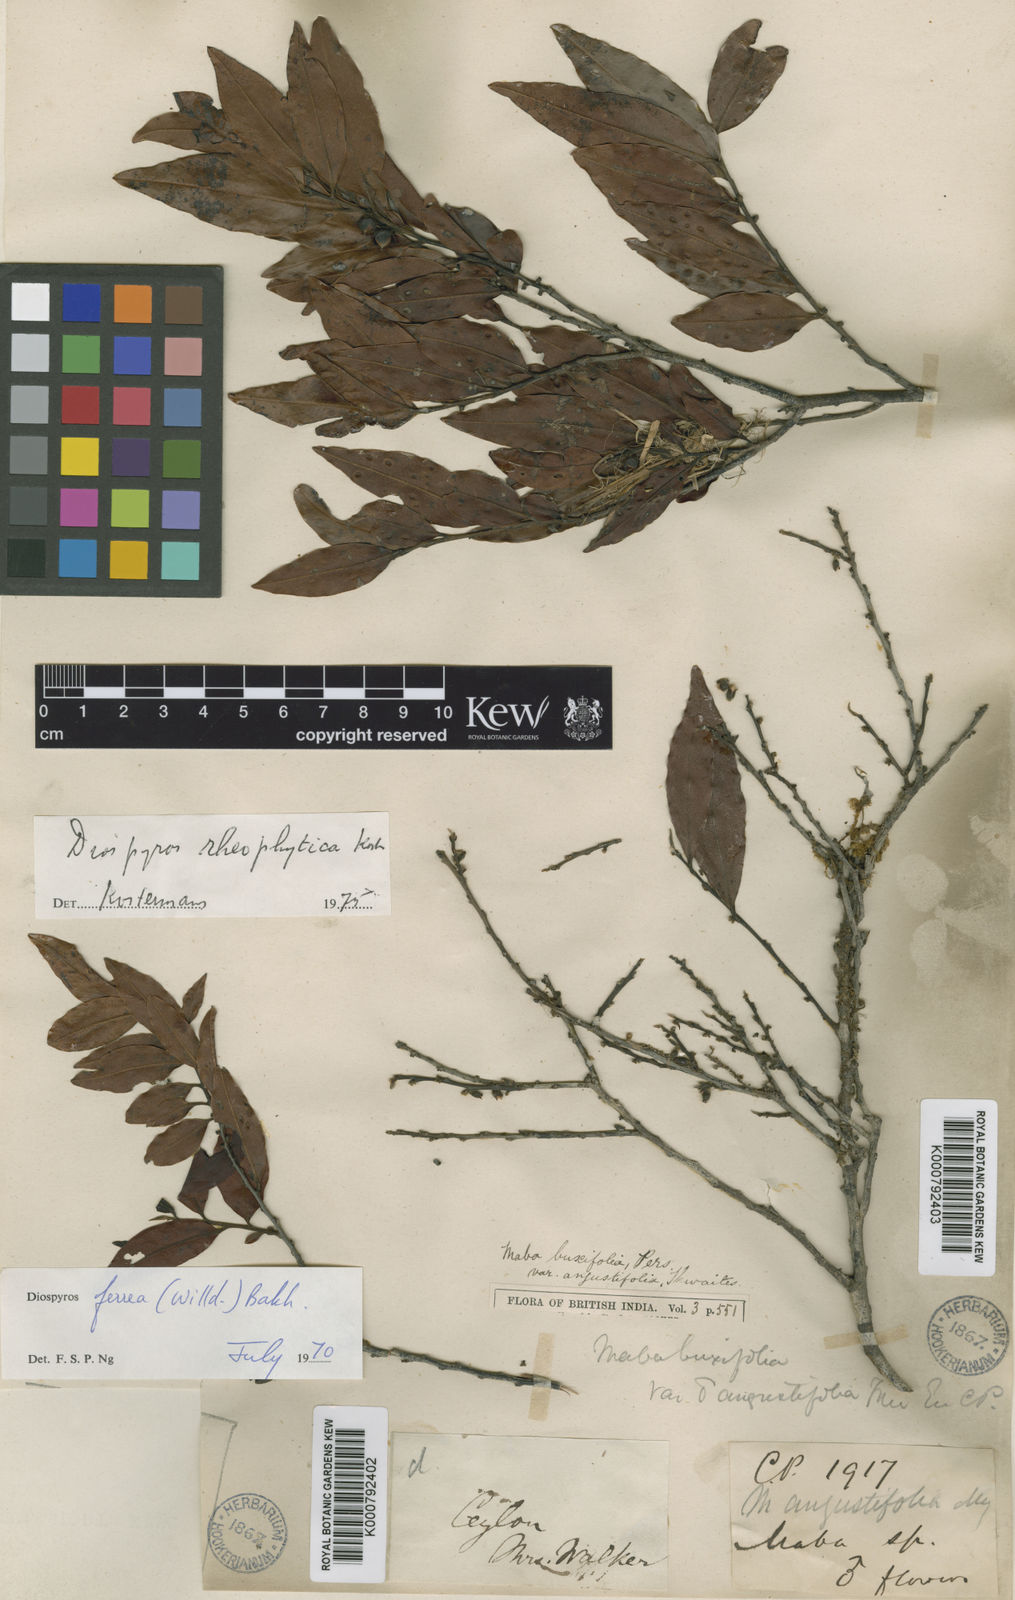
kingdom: Plantae
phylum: Tracheophyta
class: Magnoliopsida
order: Ericales
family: Ebenaceae
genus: Diospyros
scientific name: Diospyros buxifolia
